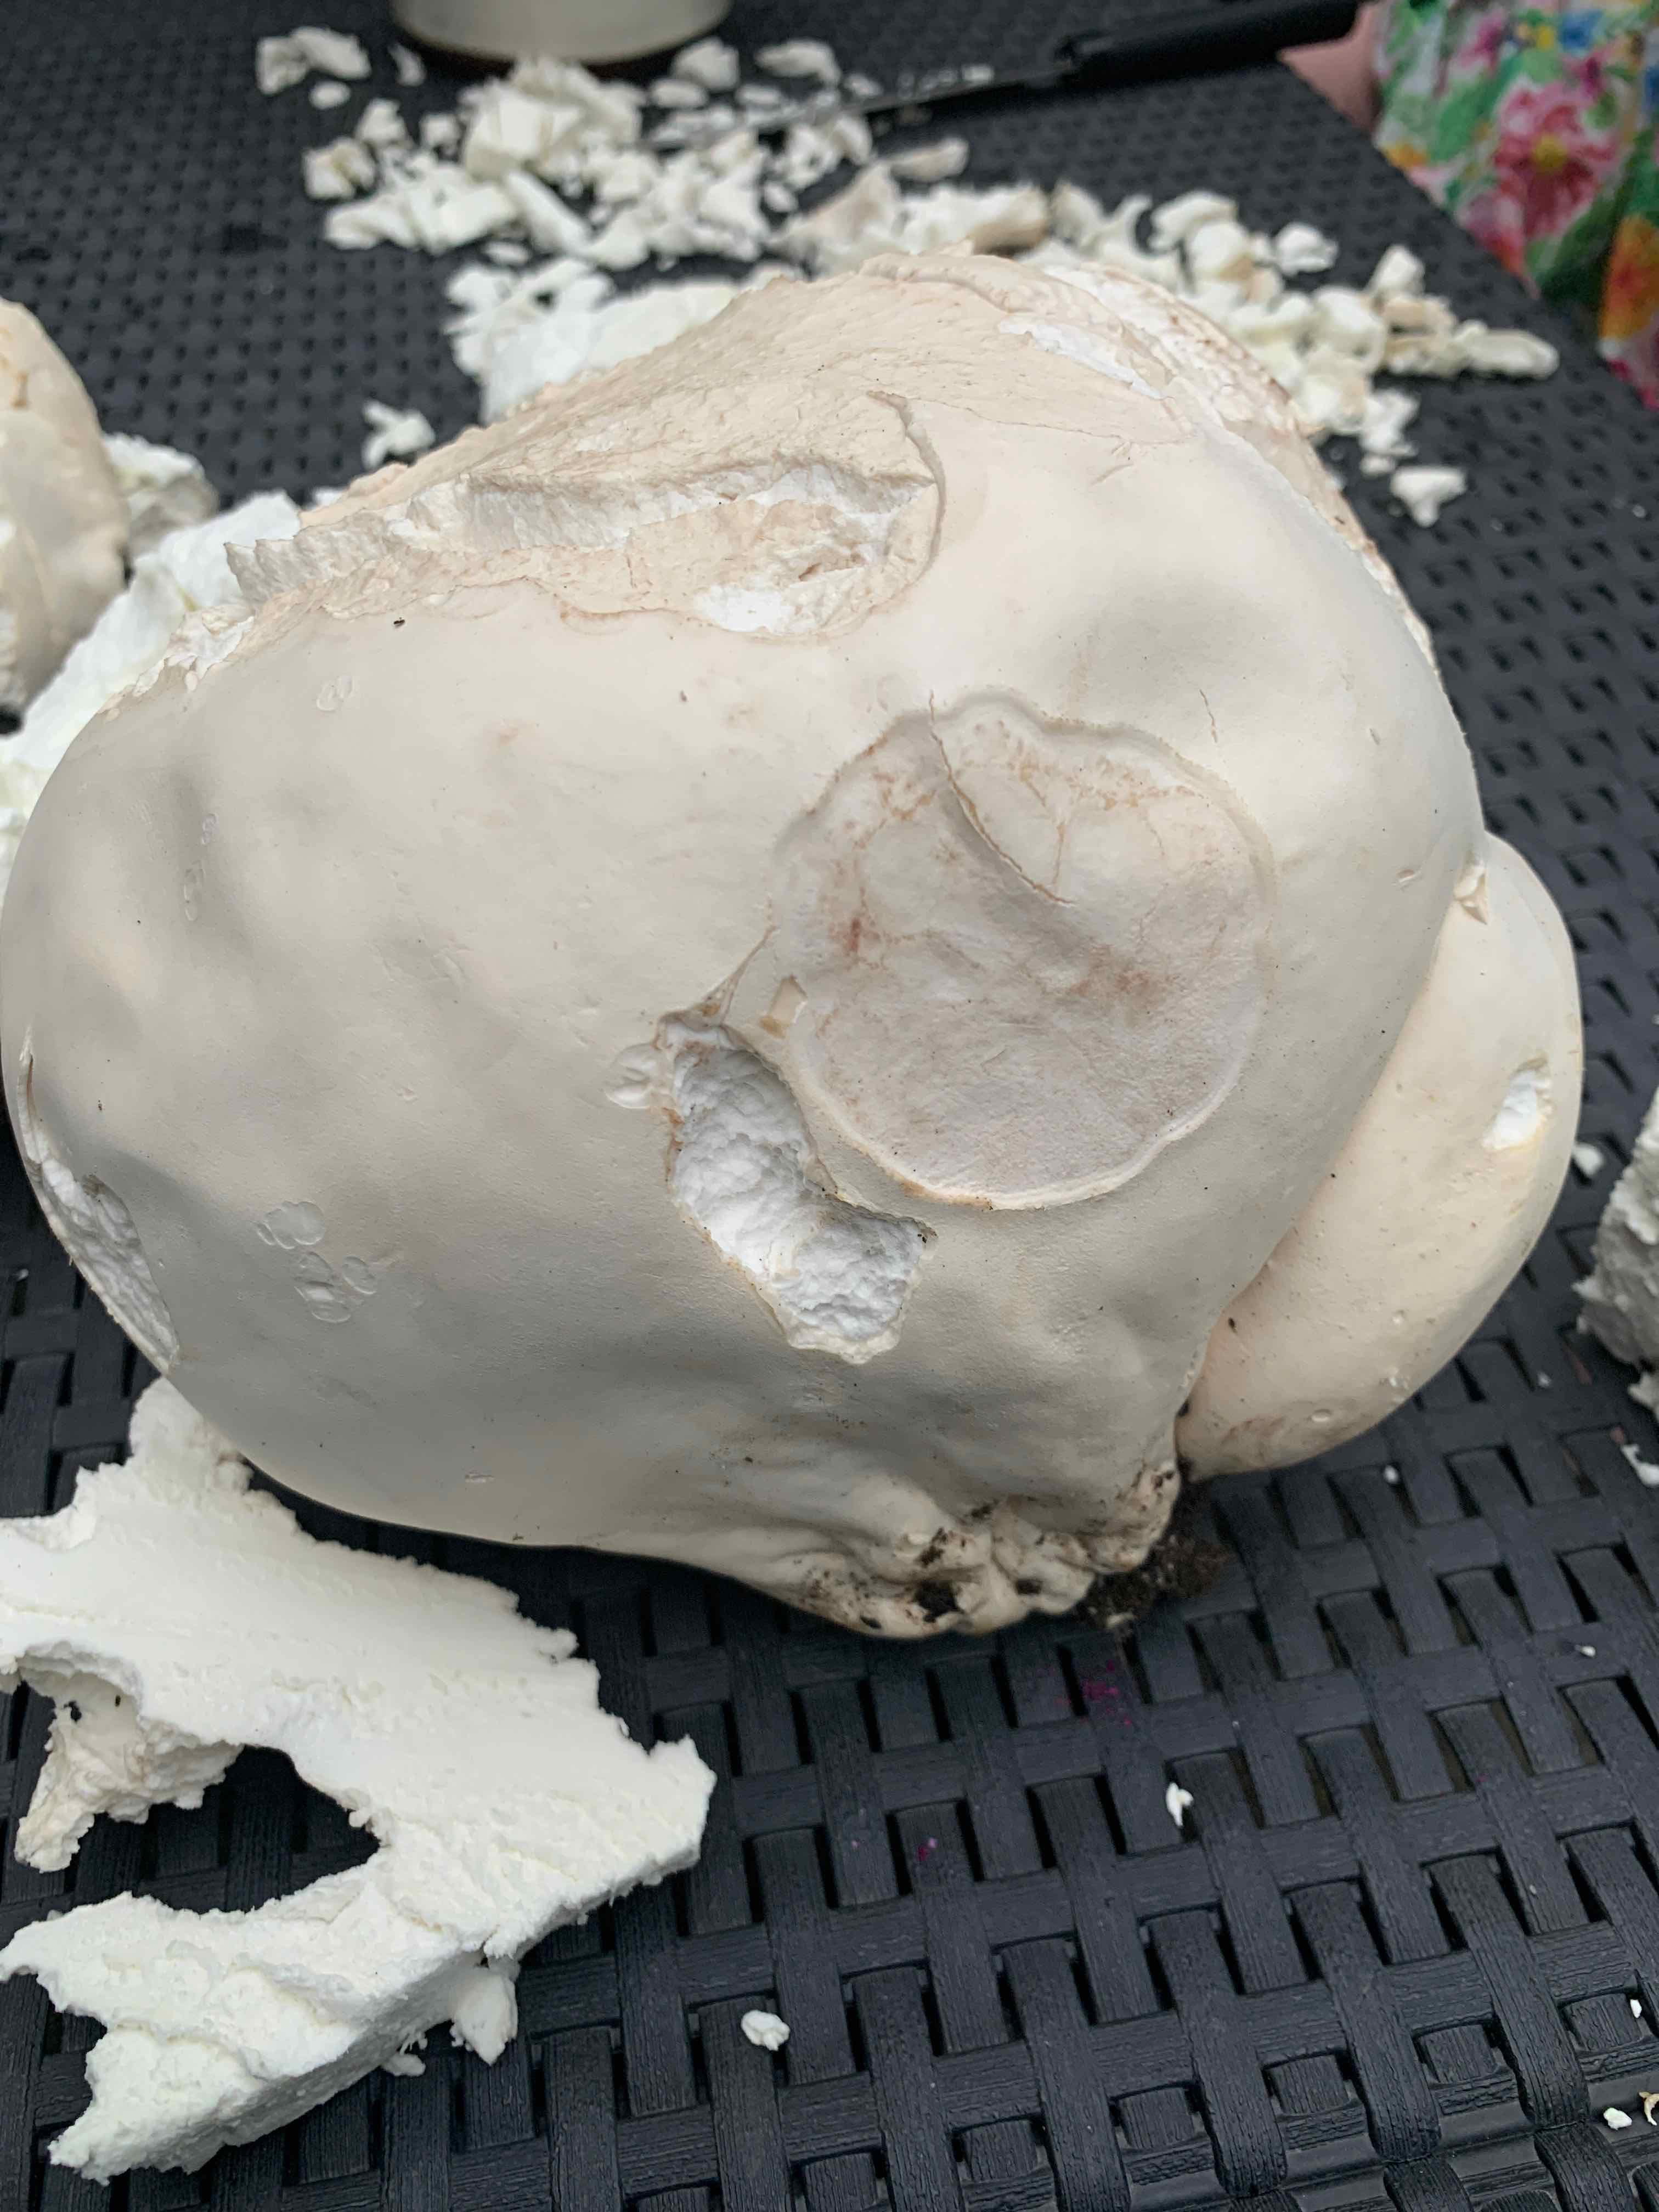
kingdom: Fungi
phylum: Basidiomycota
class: Agaricomycetes
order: Agaricales
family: Lycoperdaceae
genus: Calvatia
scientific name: Calvatia gigantea
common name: kæmpestøvbold
